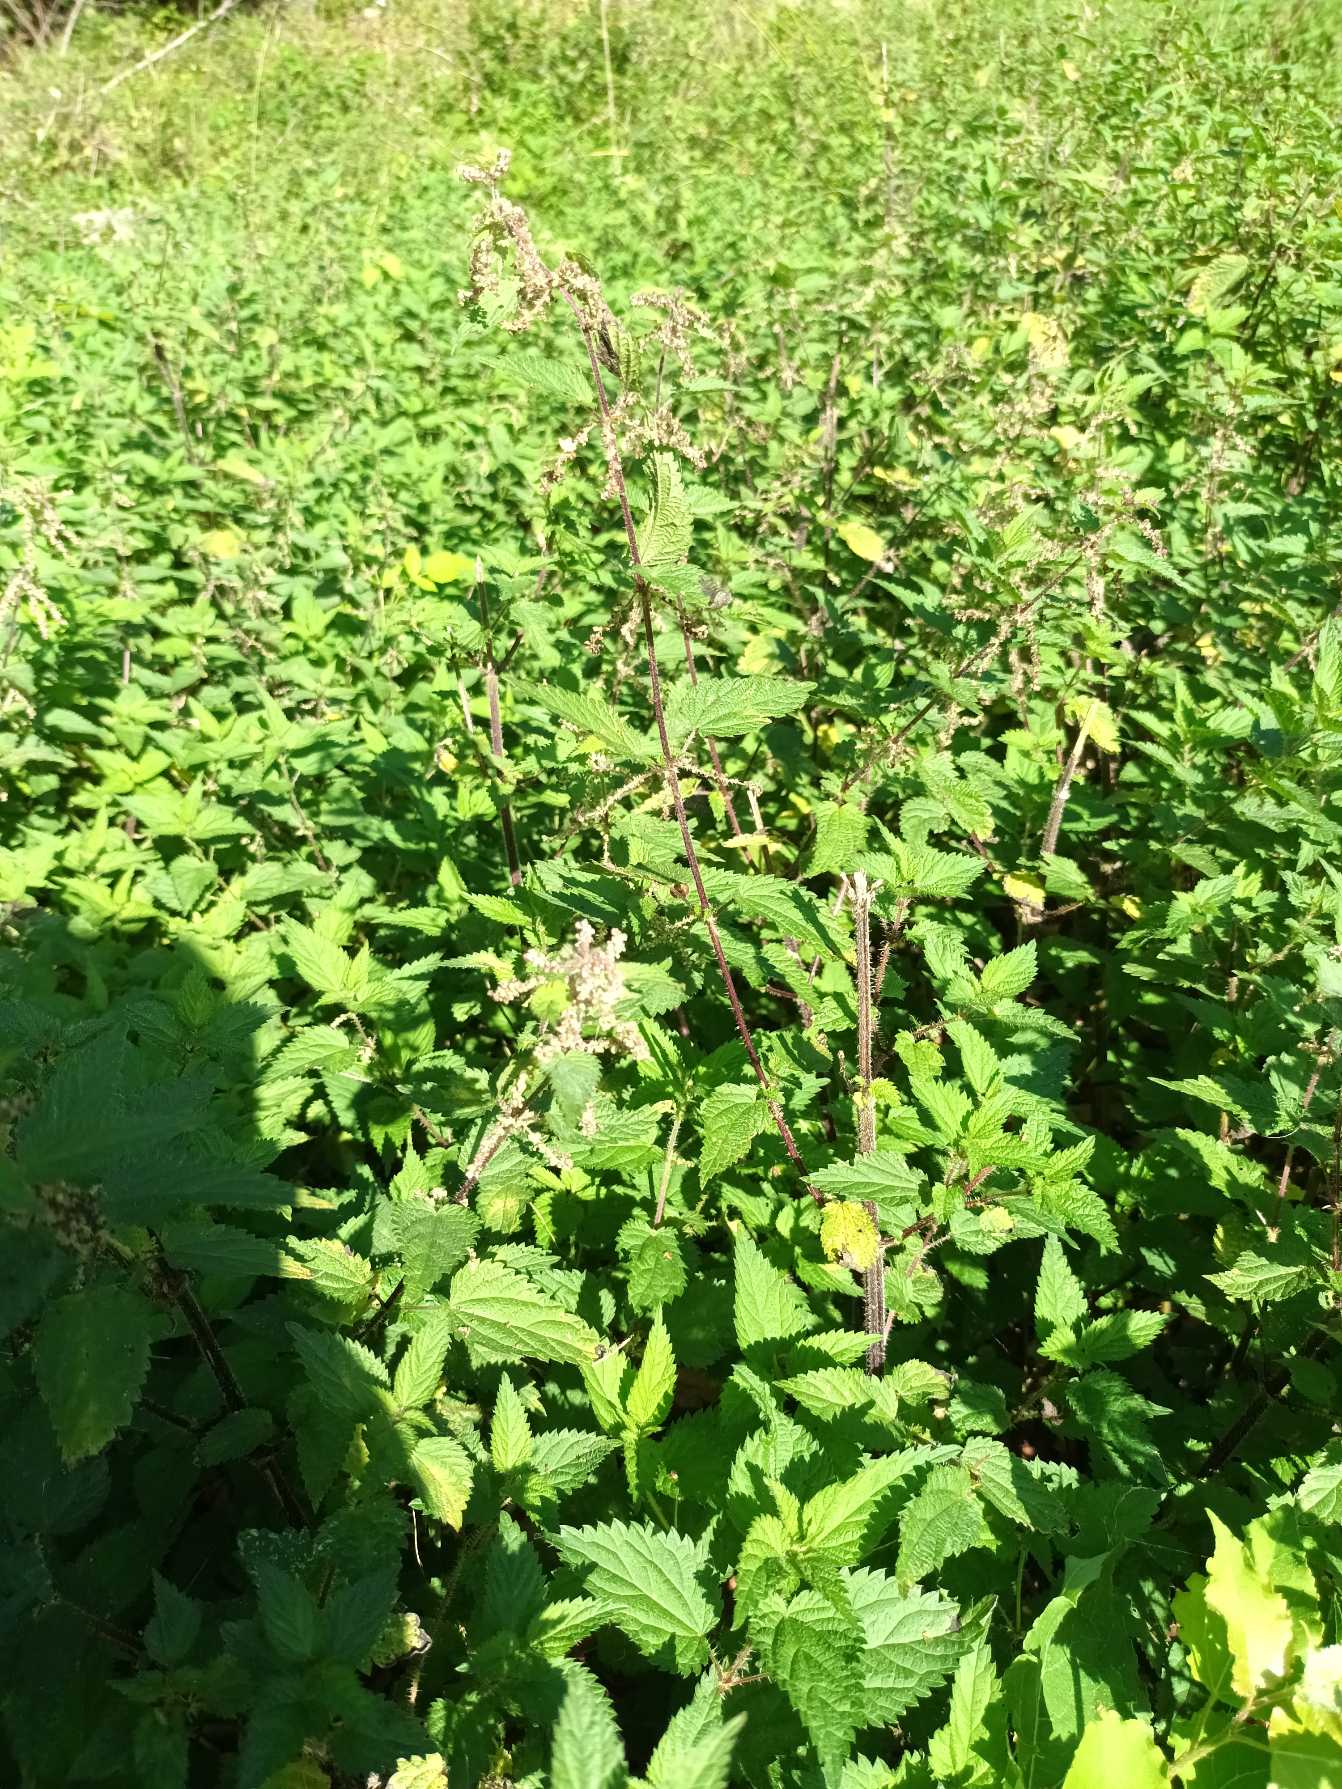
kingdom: Plantae
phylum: Tracheophyta
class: Magnoliopsida
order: Rosales
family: Urticaceae
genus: Urtica
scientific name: Urtica dioica
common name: Stor nælde
